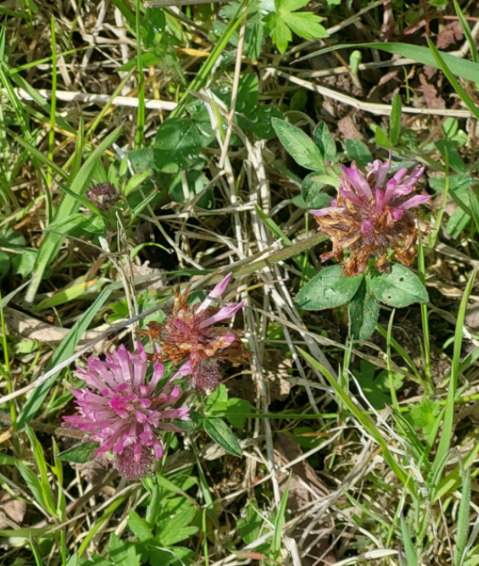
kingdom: Plantae
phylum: Tracheophyta
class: Magnoliopsida
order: Fabales
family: Fabaceae
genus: Trifolium
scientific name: Trifolium pratense
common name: Rød-kløver
